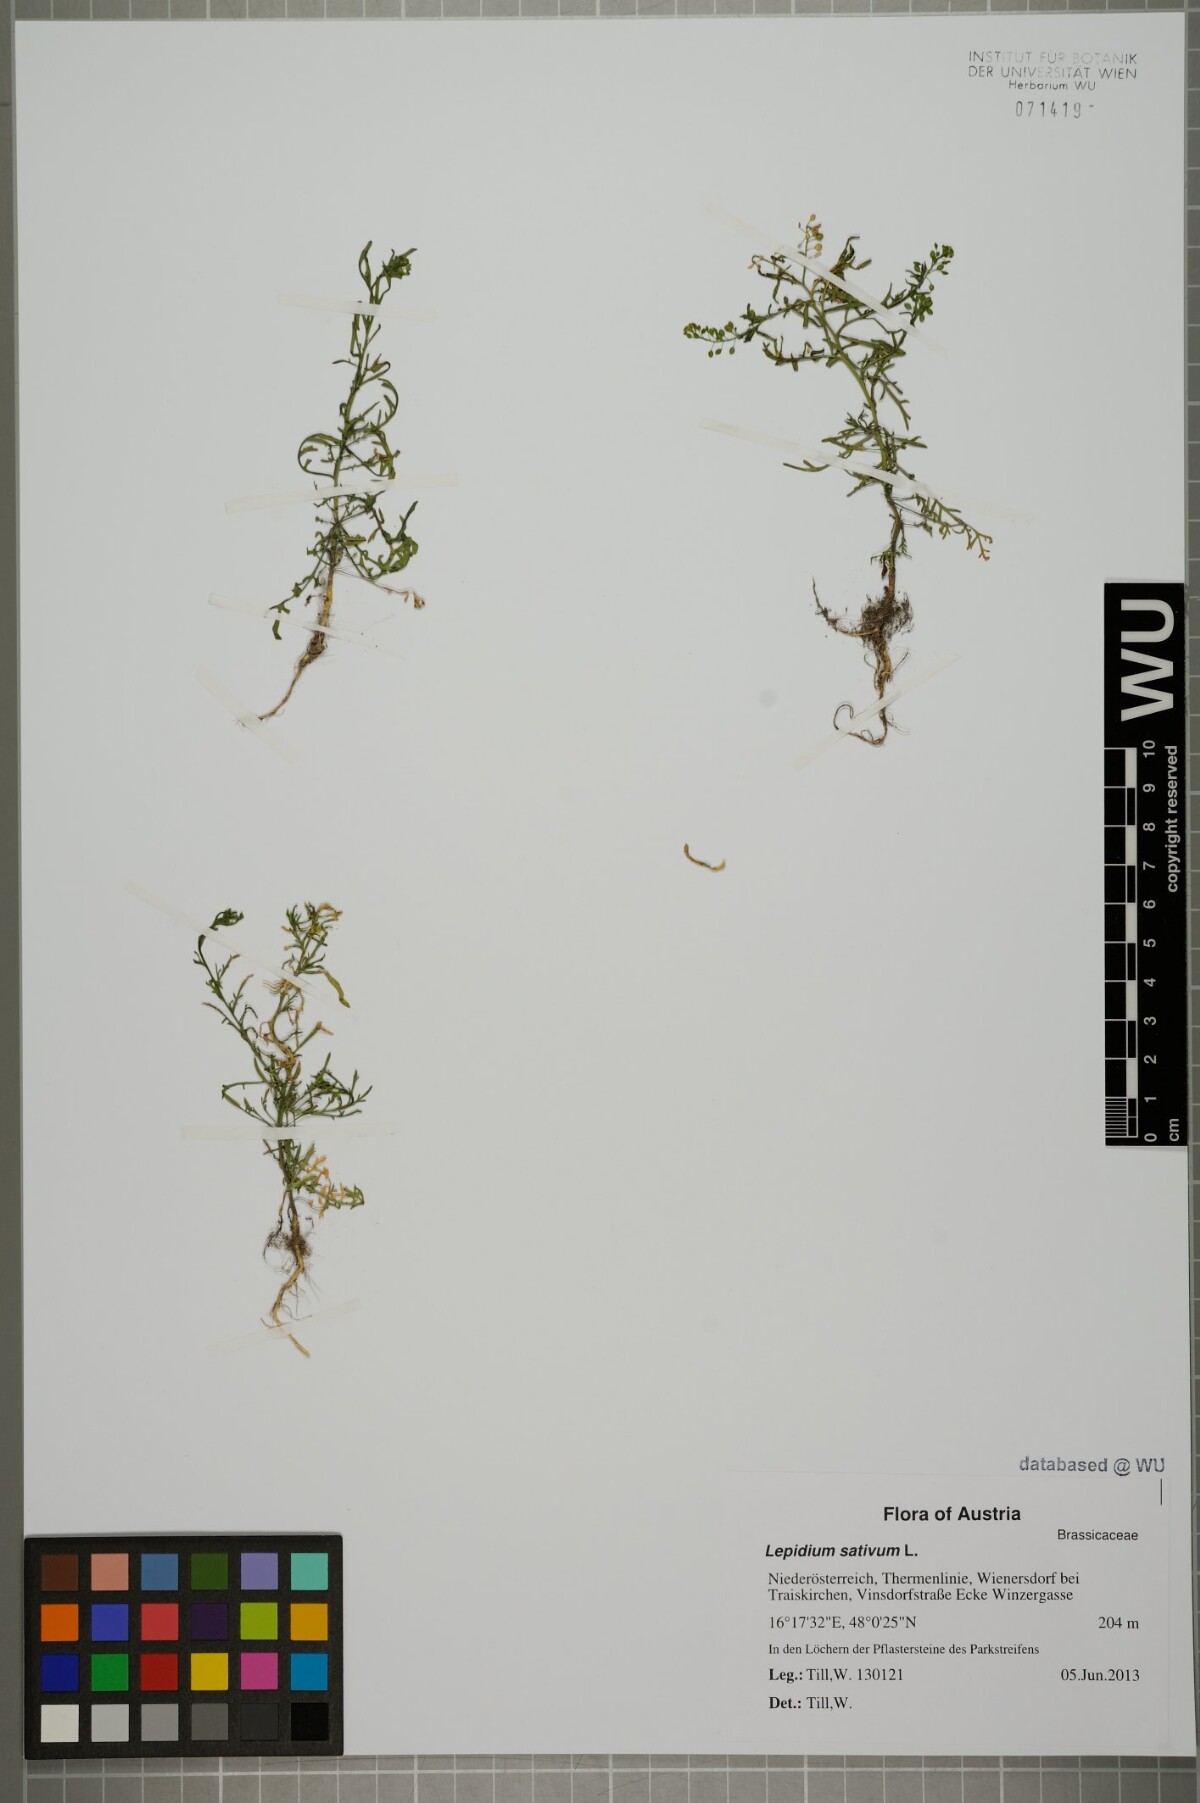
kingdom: Plantae
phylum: Tracheophyta
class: Magnoliopsida
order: Brassicales
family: Brassicaceae
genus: Lepidium
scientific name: Lepidium ruderale
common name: Narrow-leaved pepperwort
